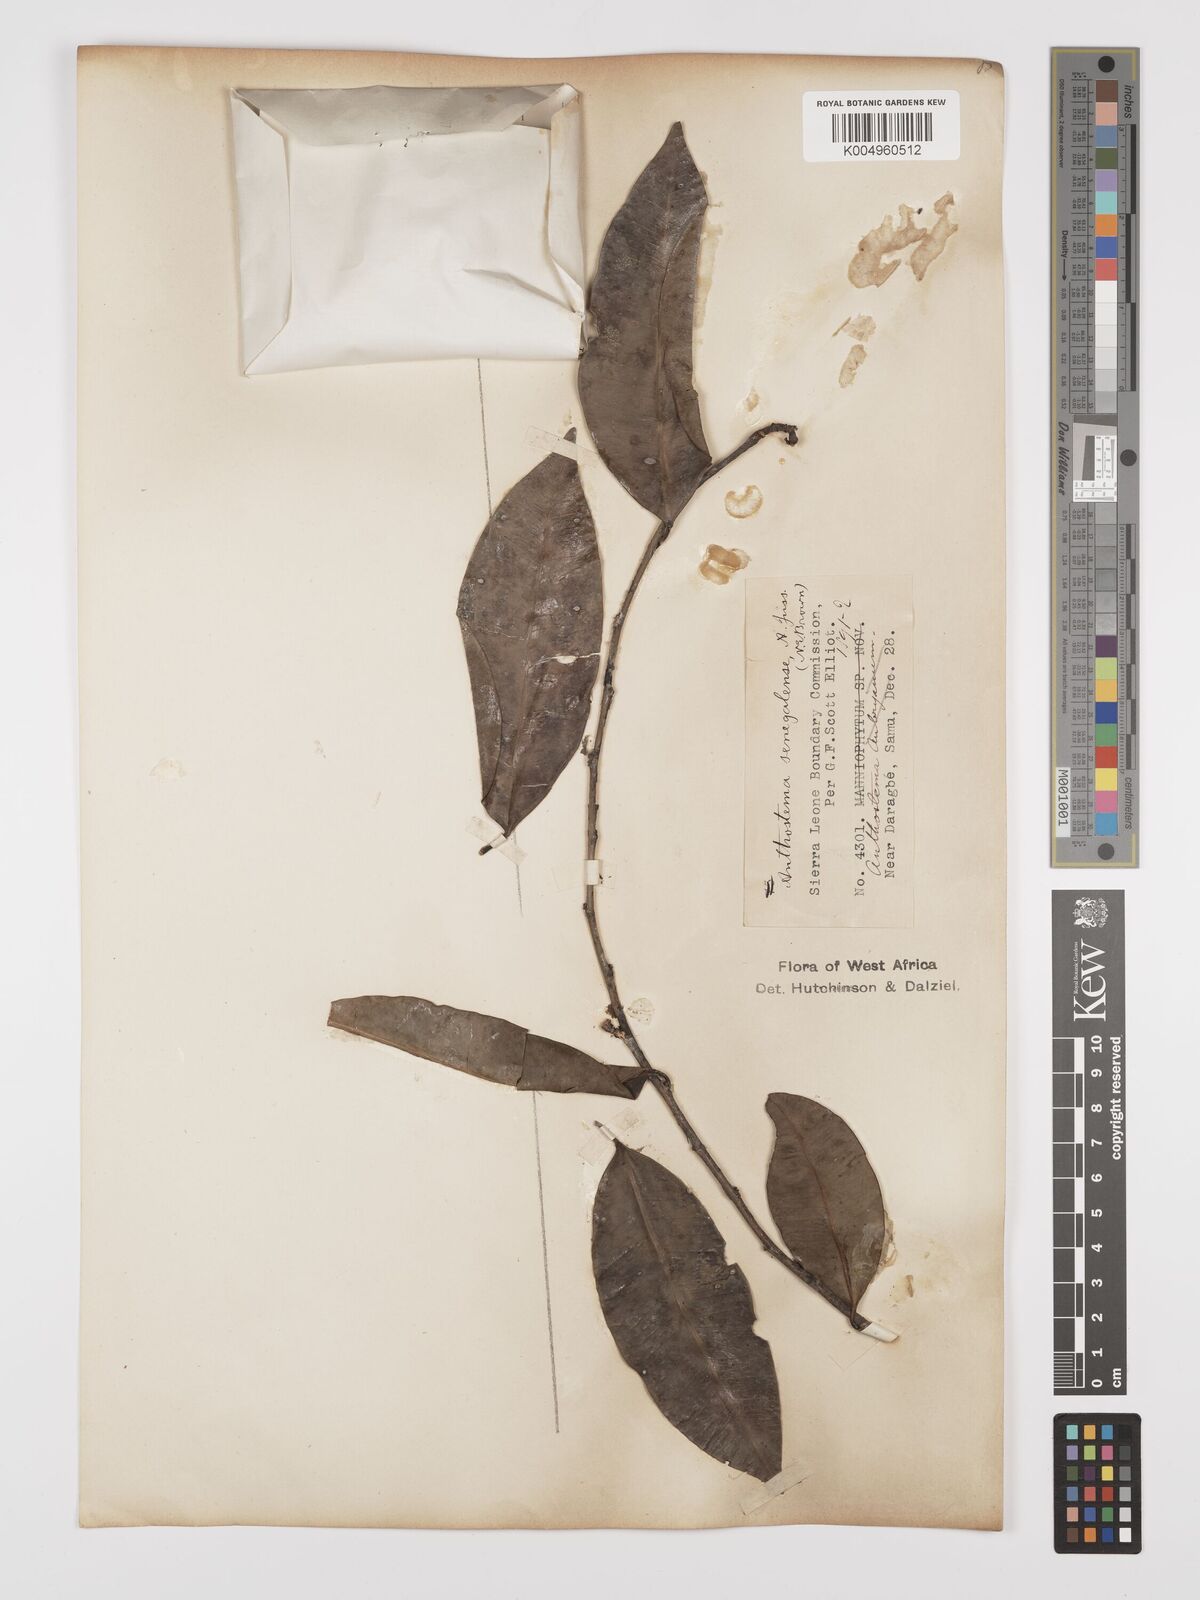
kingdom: Plantae
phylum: Tracheophyta
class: Magnoliopsida
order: Malpighiales
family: Euphorbiaceae
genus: Anthostema
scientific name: Anthostema senegalense
